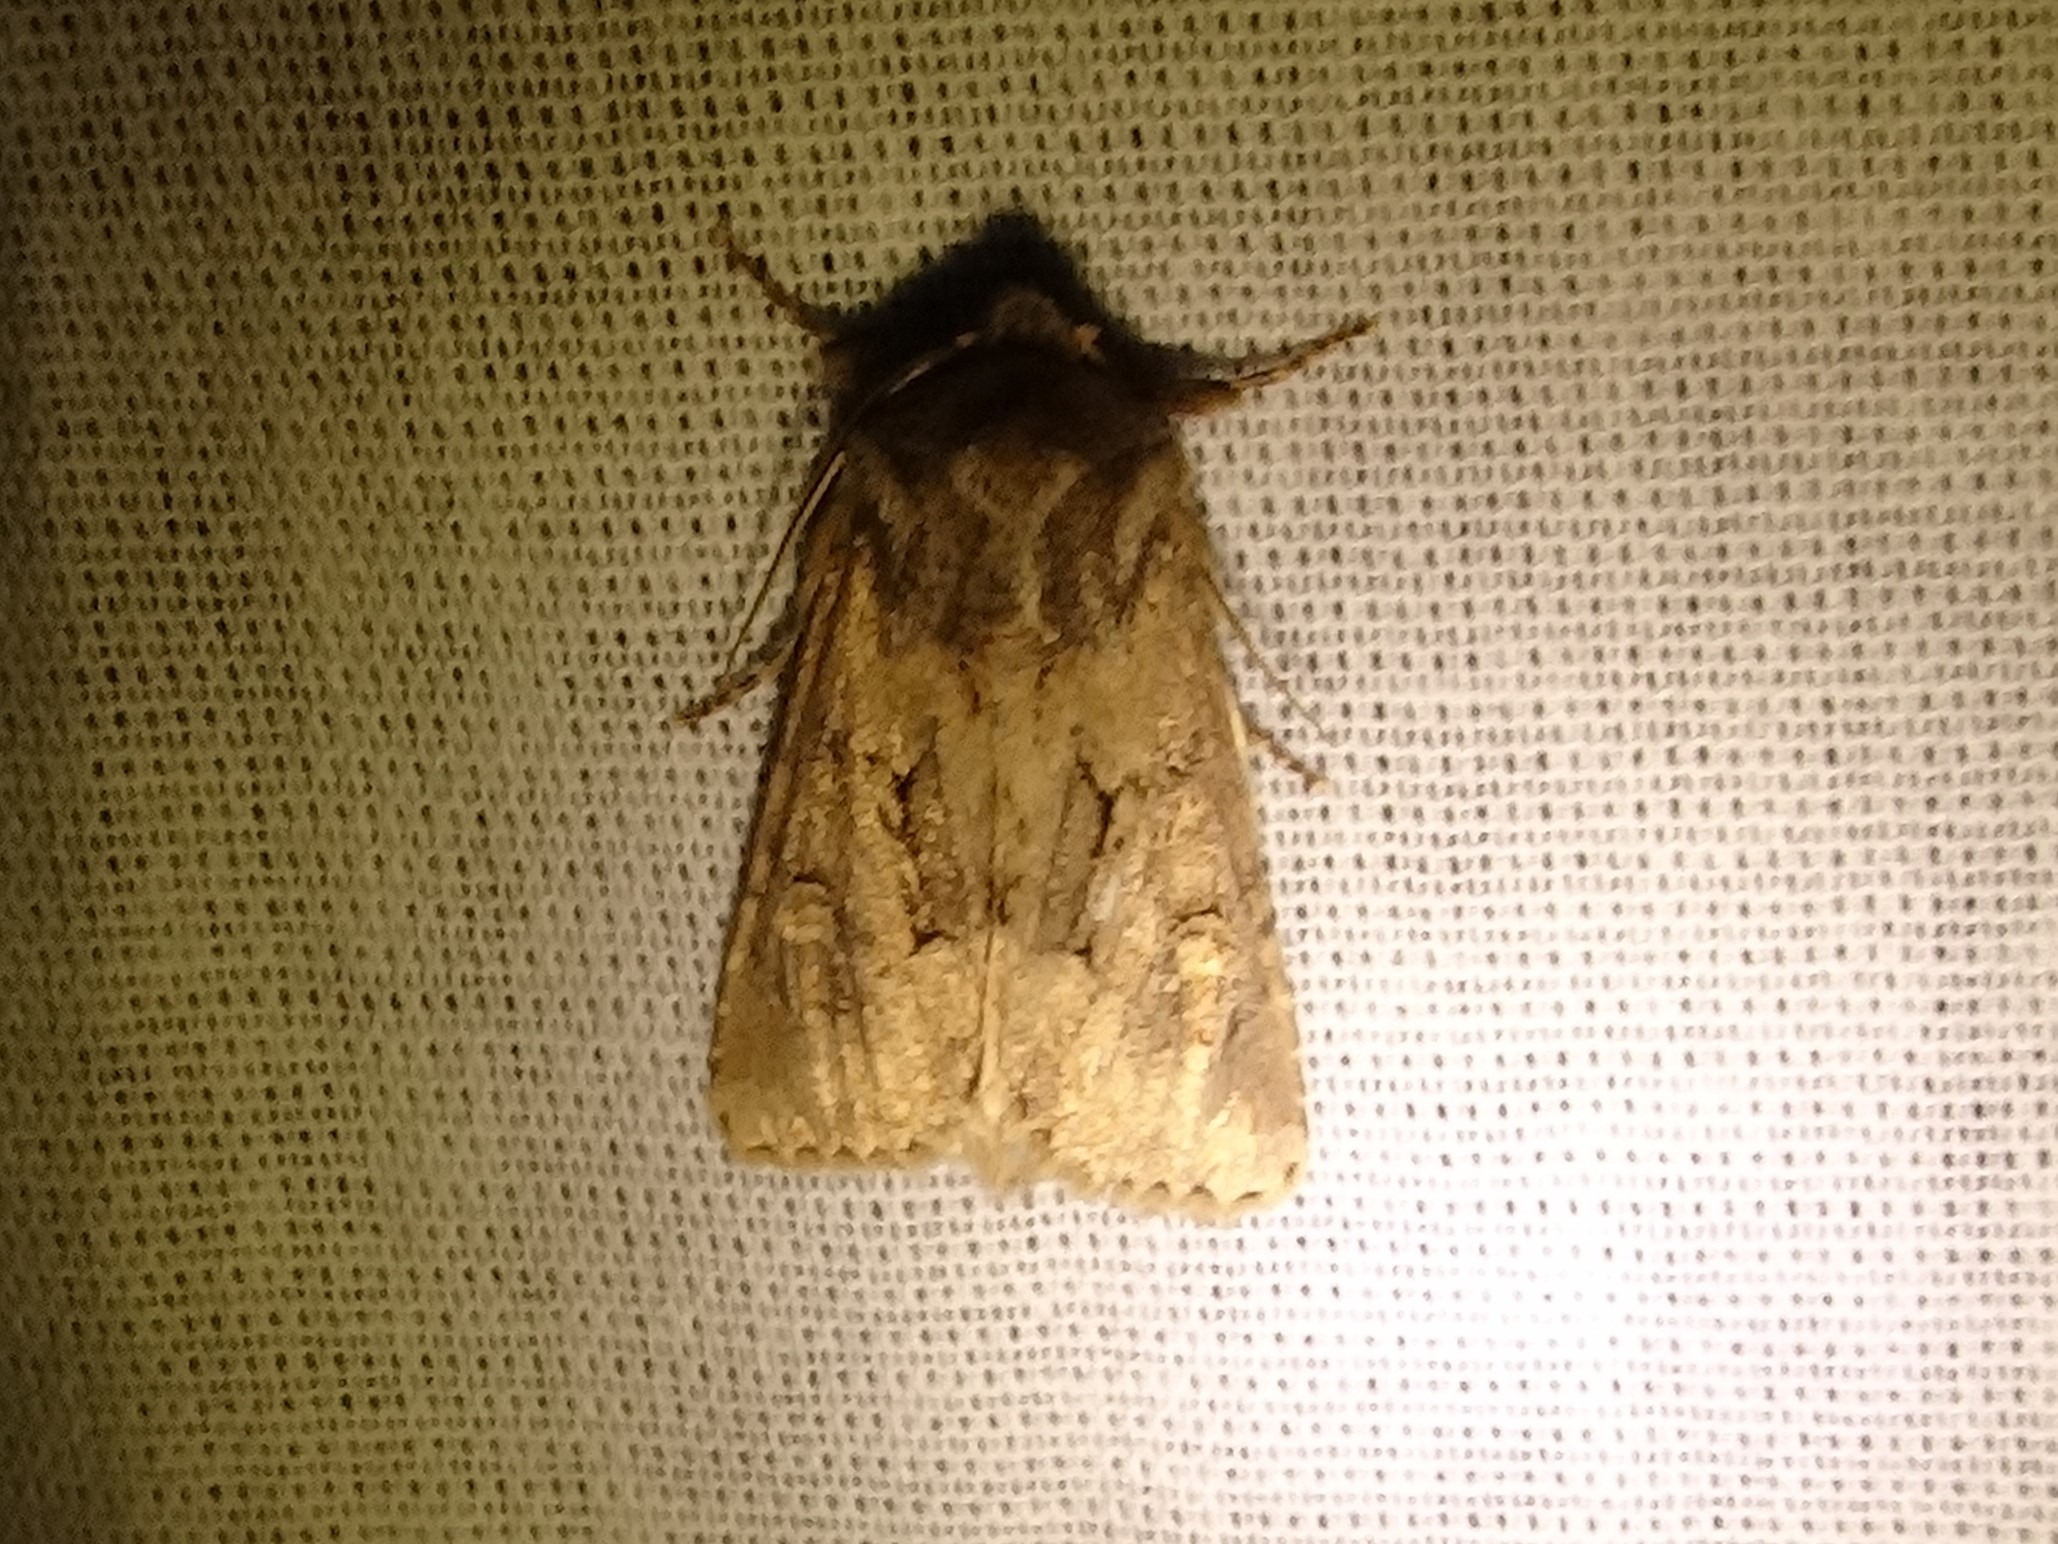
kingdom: Animalia
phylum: Arthropoda
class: Insecta
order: Lepidoptera
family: Noctuidae
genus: Luperina
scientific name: Luperina testacea
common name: Frøgræsugle
